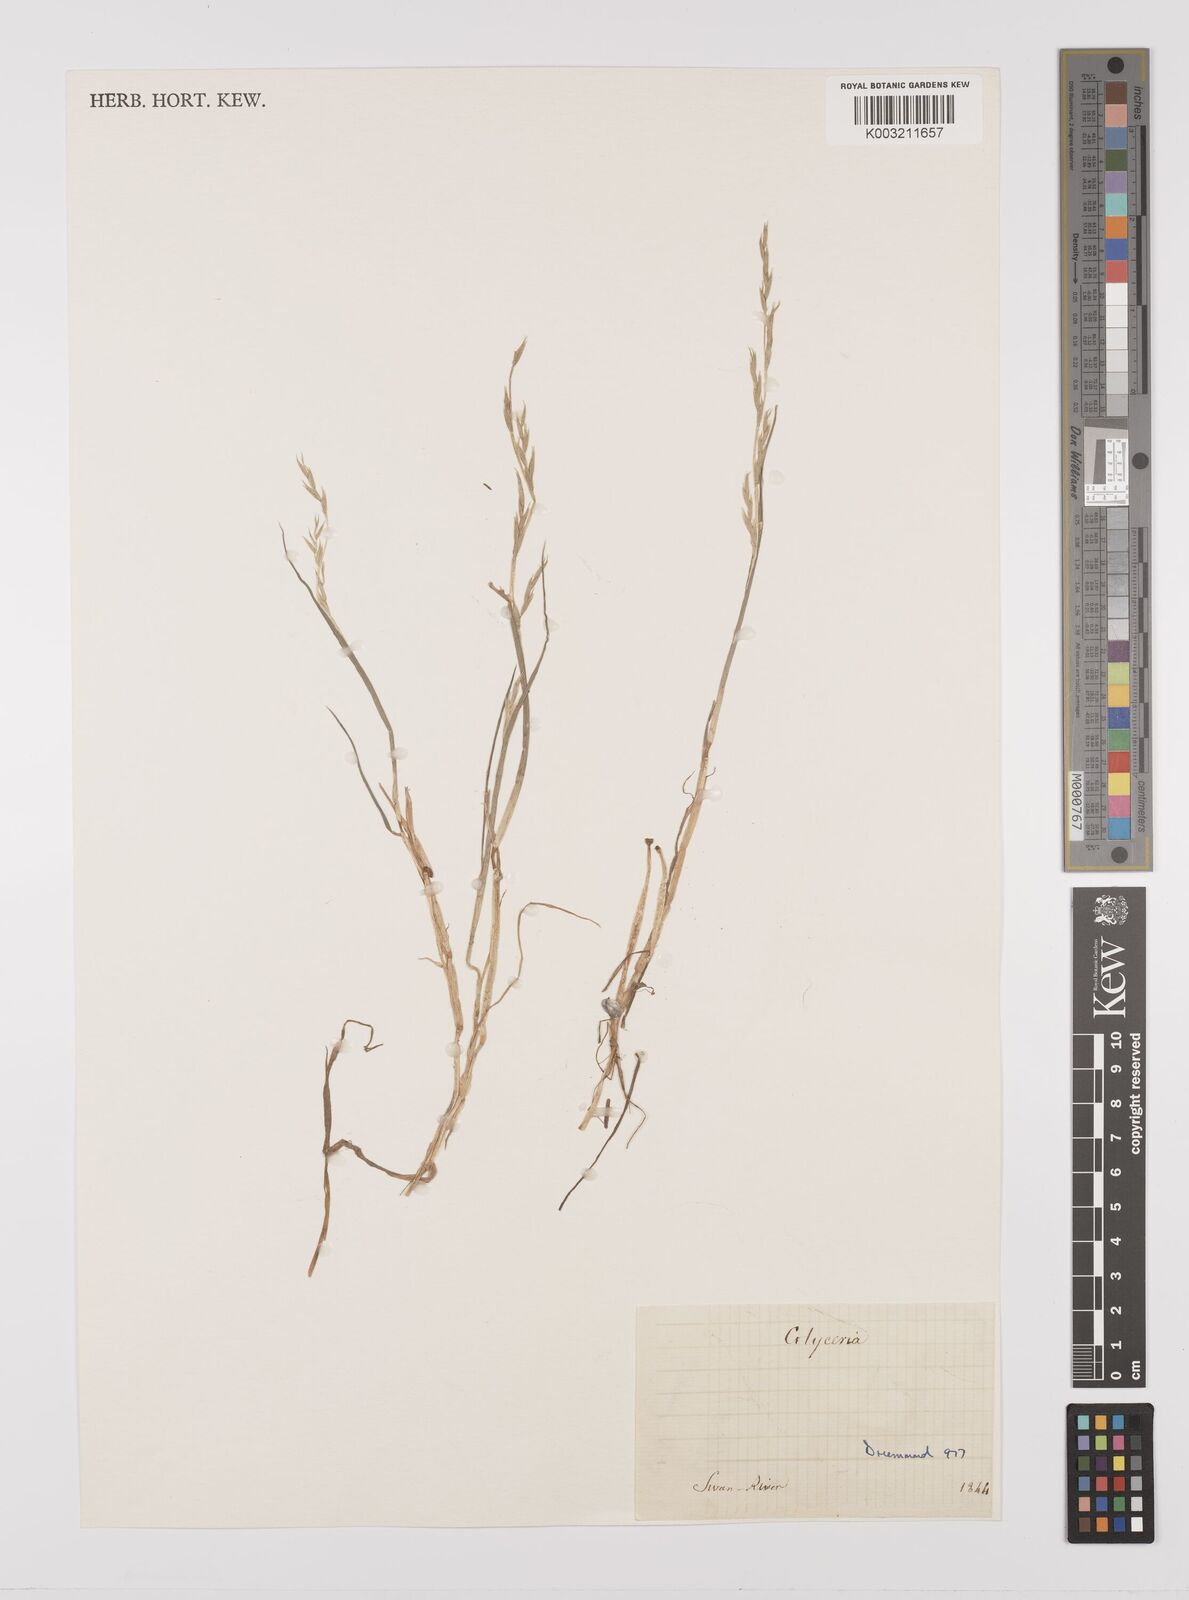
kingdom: Plantae
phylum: Tracheophyta
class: Liliopsida
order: Poales
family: Poaceae
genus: Glyceria
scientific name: Glyceria drummondii
